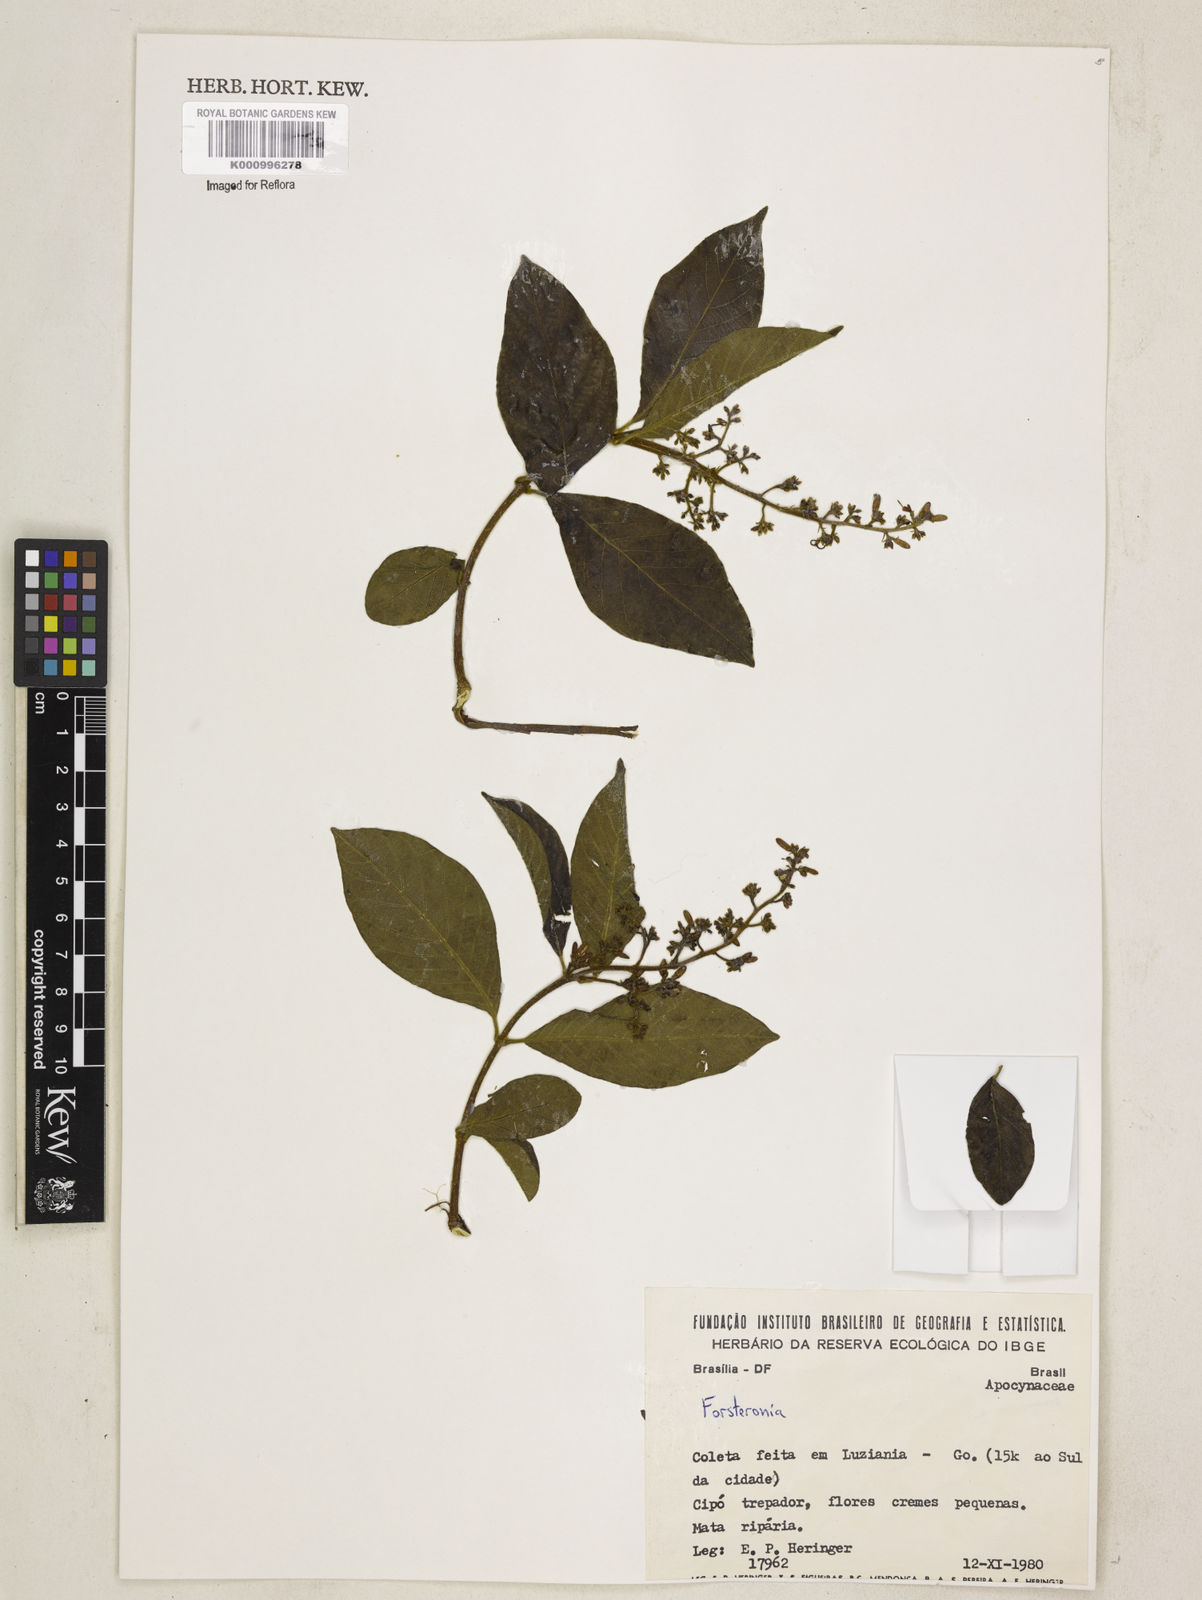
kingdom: Plantae
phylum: Tracheophyta
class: Magnoliopsida
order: Gentianales
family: Apocynaceae
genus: Forsteronia
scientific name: Forsteronia
